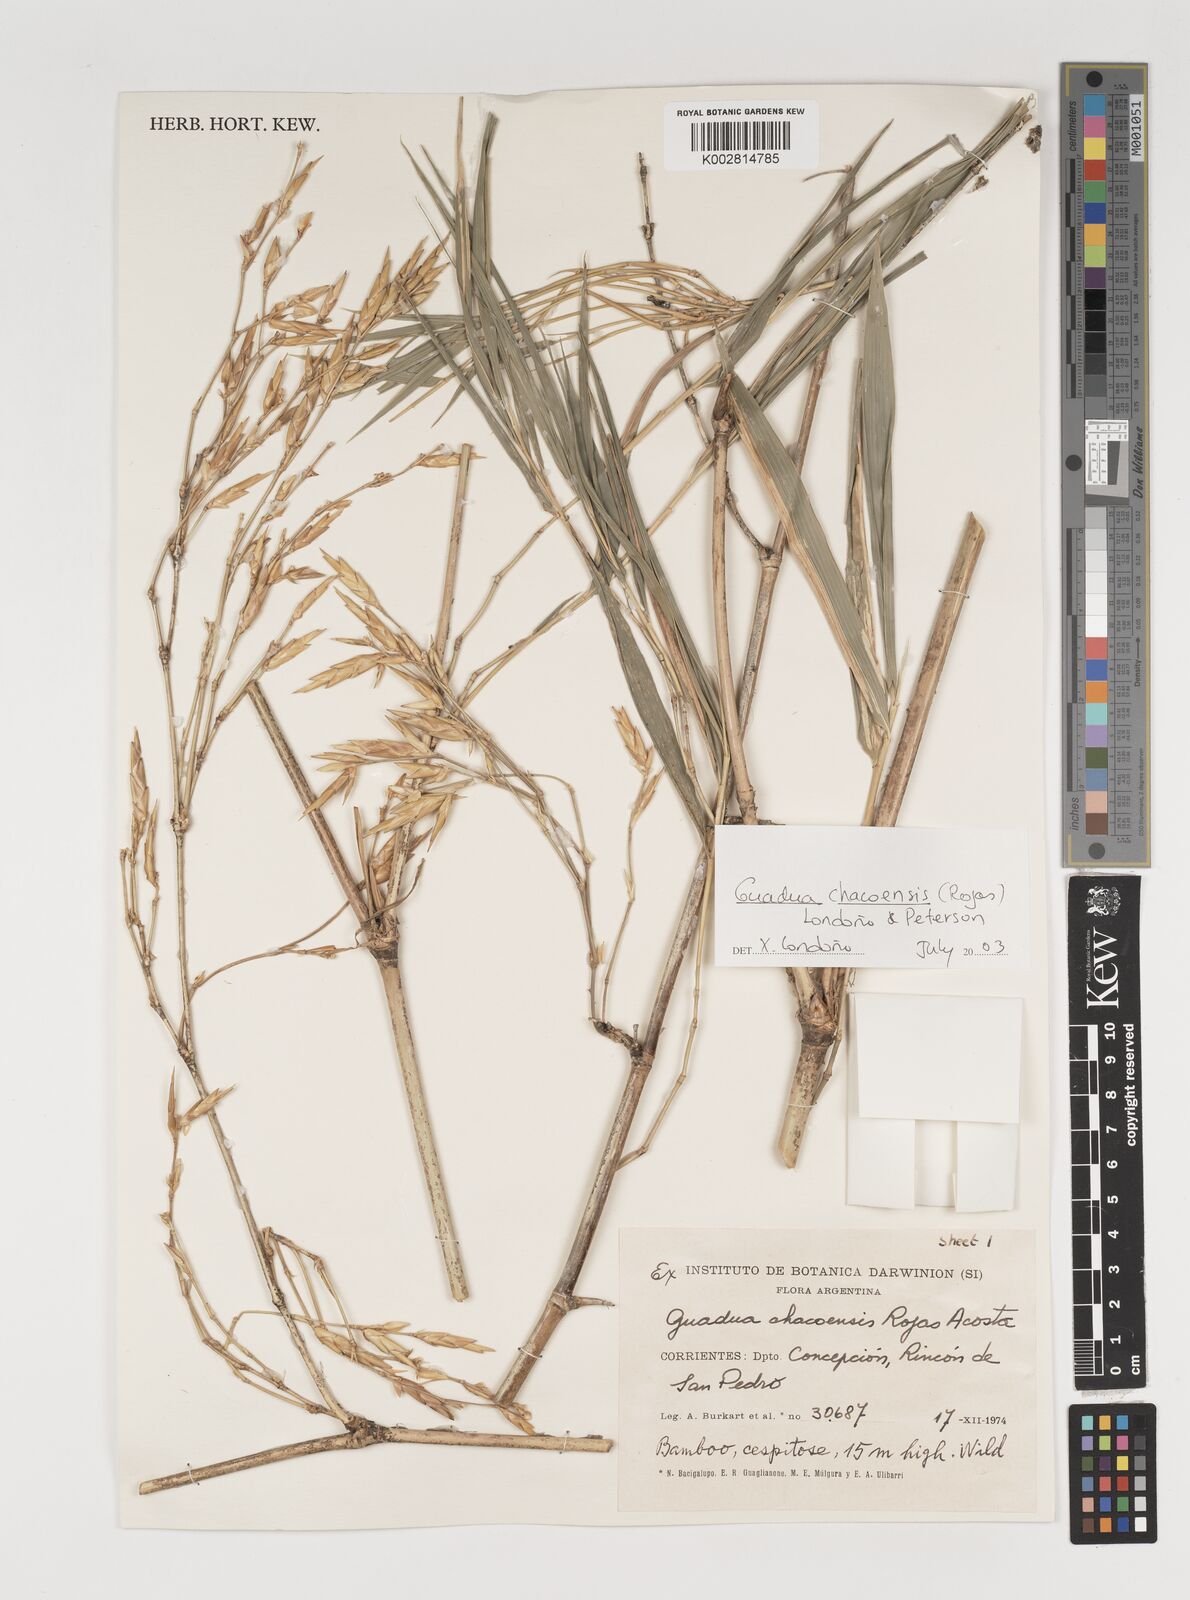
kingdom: Plantae
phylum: Tracheophyta
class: Liliopsida
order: Poales
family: Poaceae
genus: Guadua
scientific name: Guadua chacoensis
